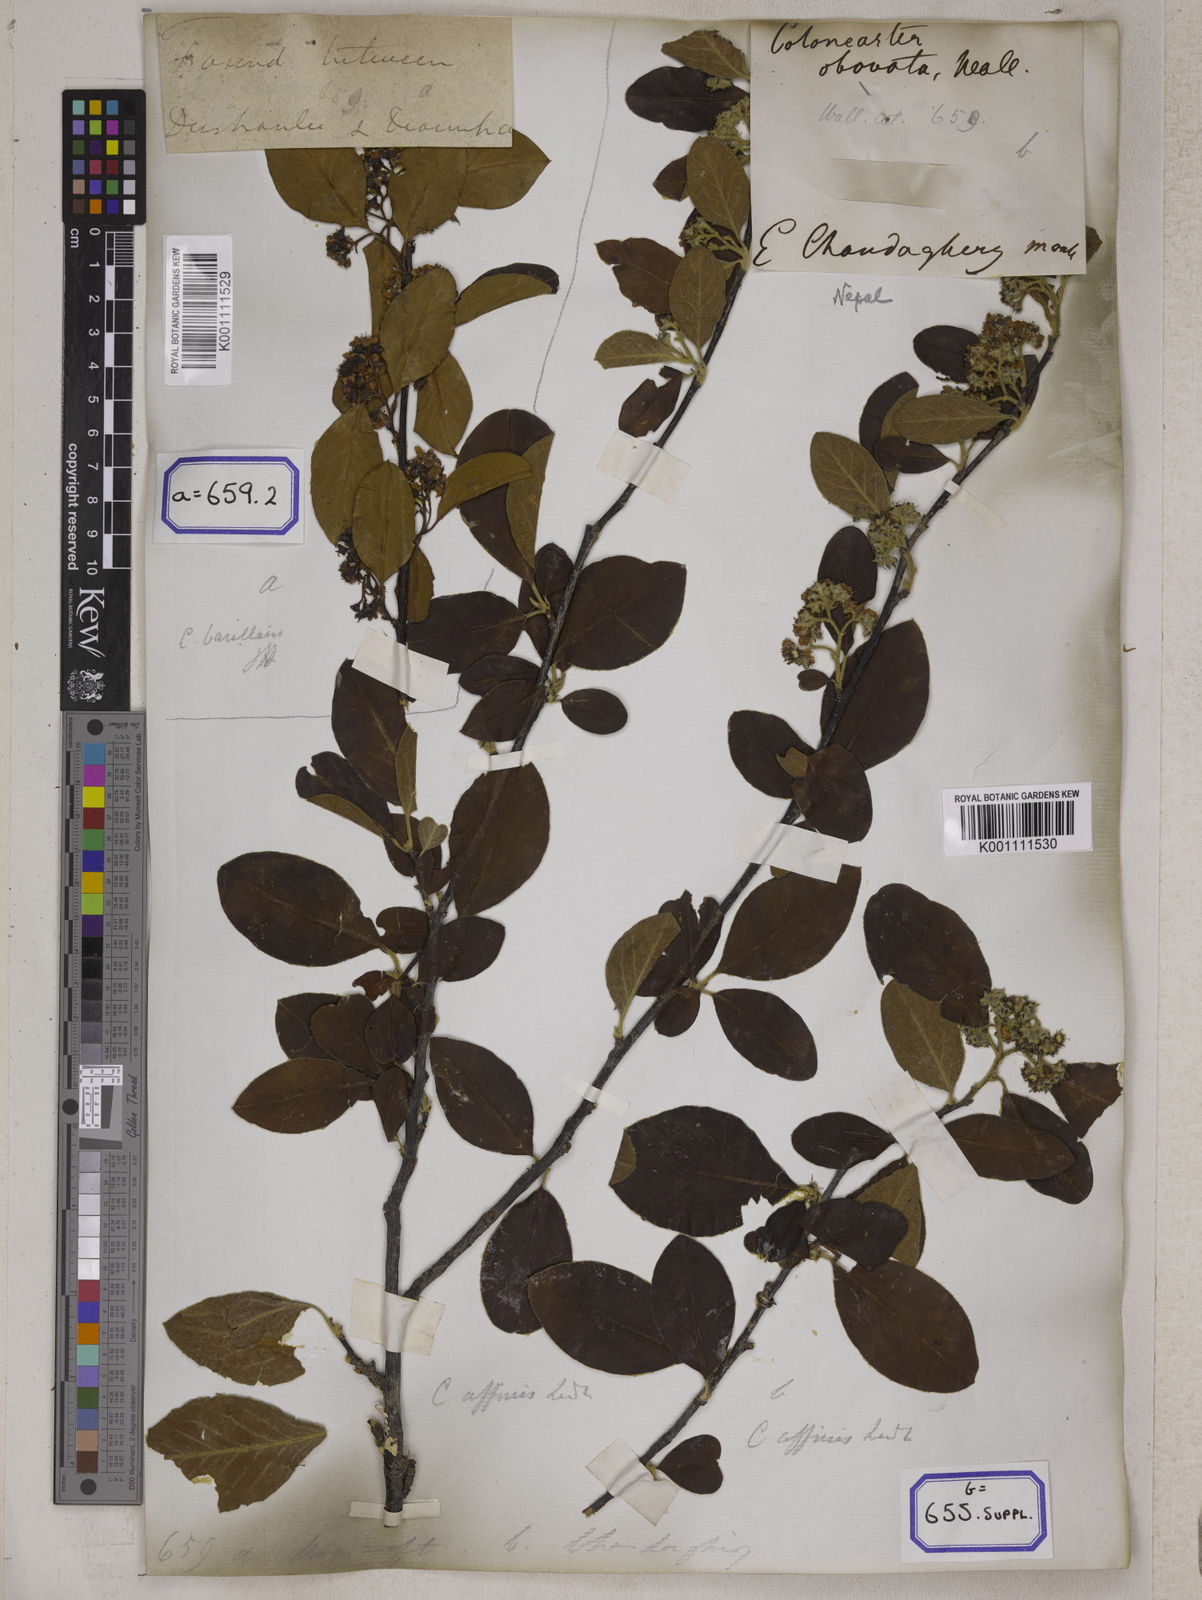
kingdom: Plantae
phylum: Tracheophyta
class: Magnoliopsida
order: Rosales
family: Rosaceae
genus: Cotoneaster
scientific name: Cotoneaster
